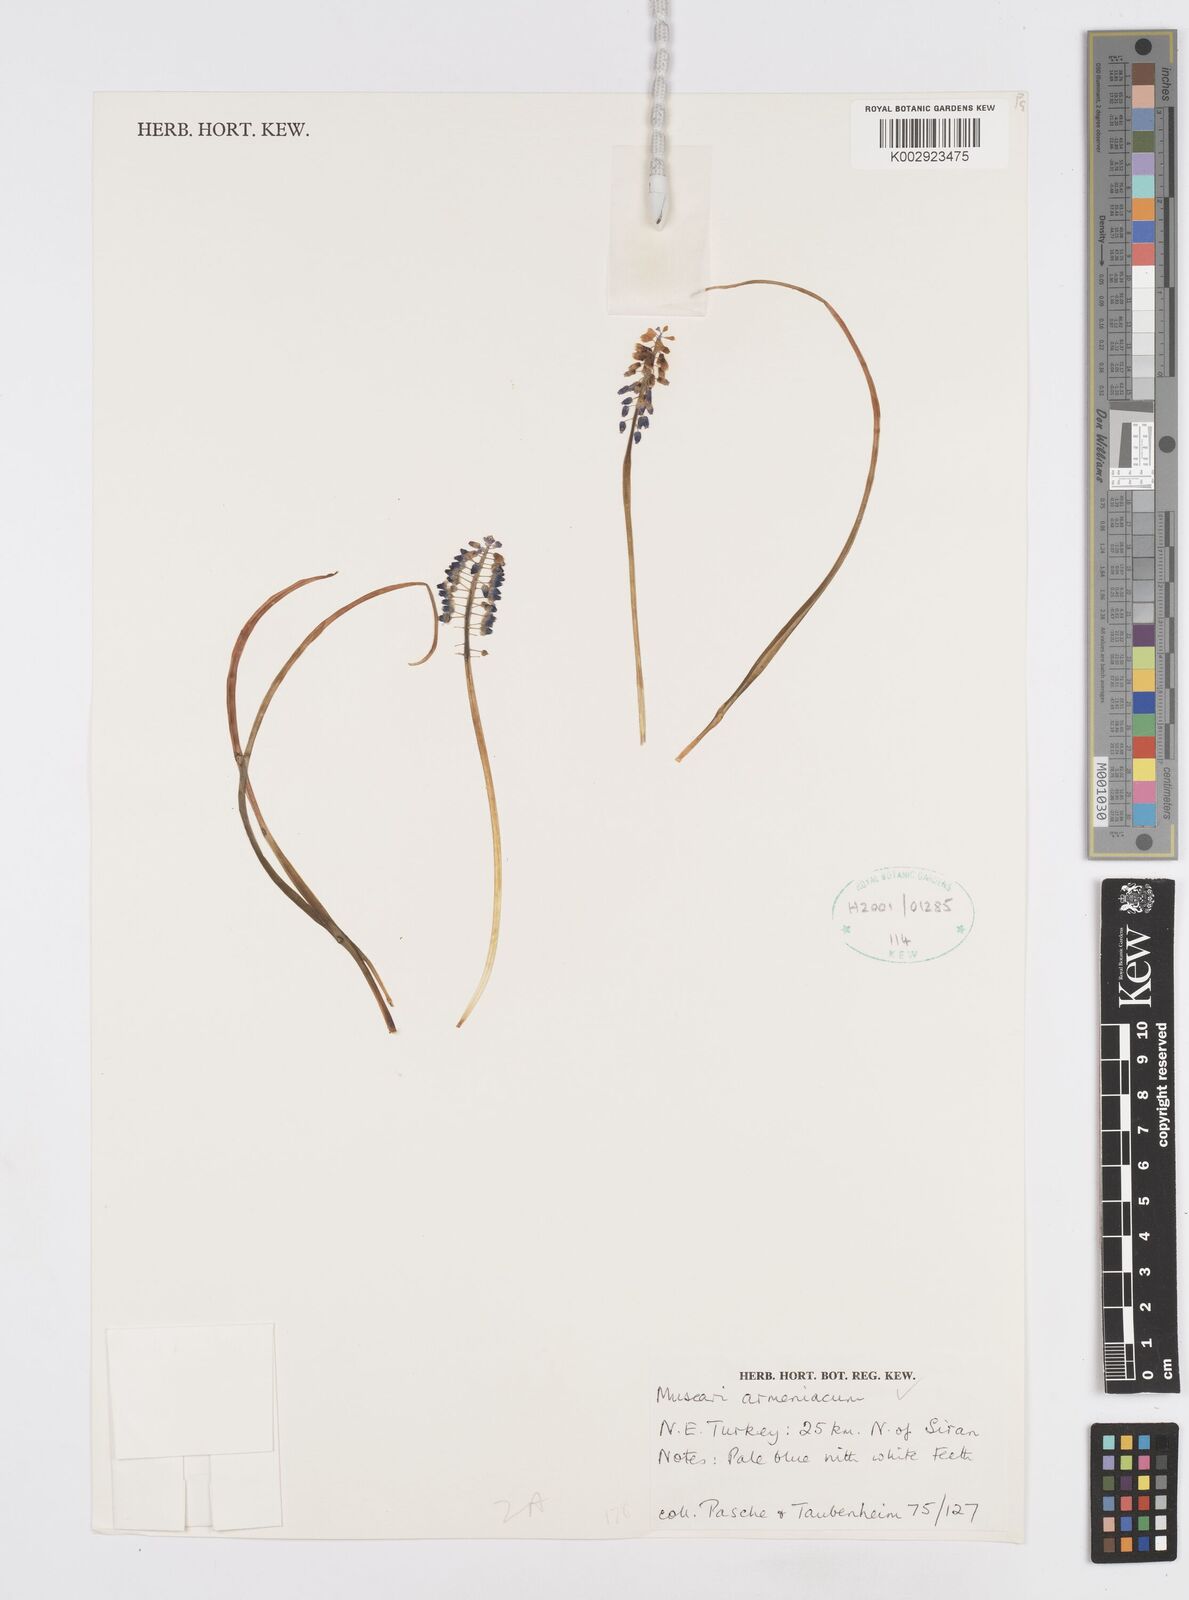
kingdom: Plantae
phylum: Tracheophyta
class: Liliopsida
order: Asparagales
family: Asparagaceae
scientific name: Asparagaceae
